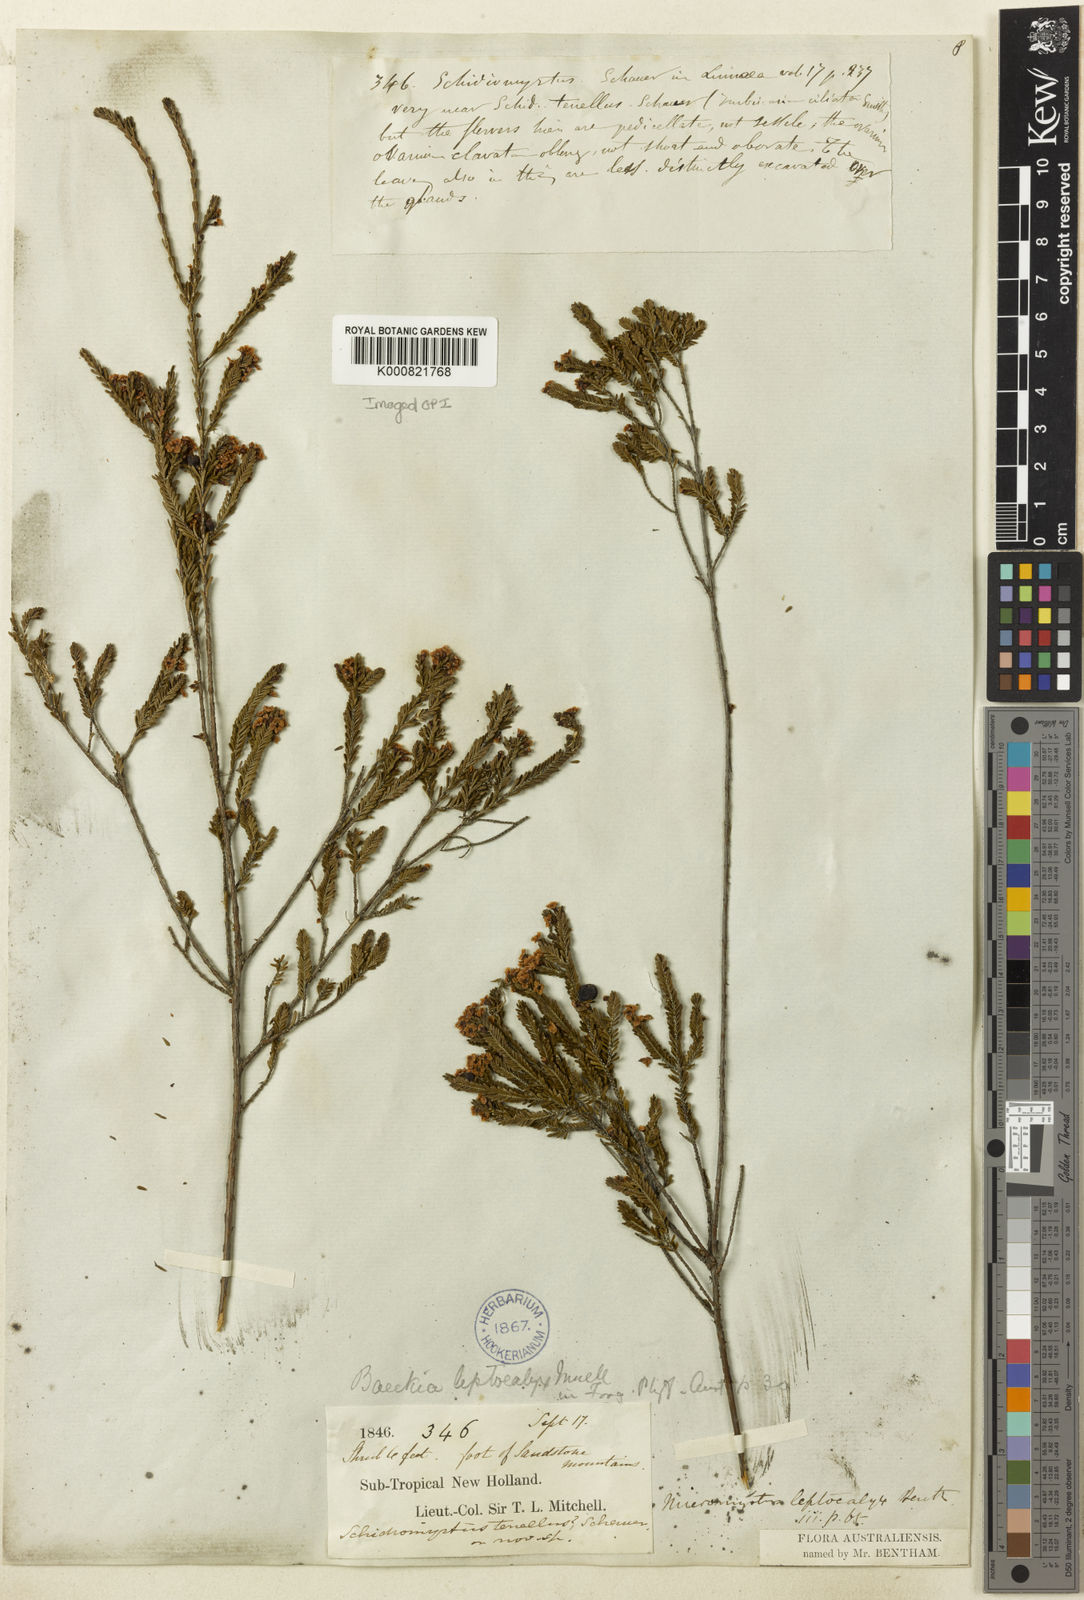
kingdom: Plantae
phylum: Tracheophyta
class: Magnoliopsida
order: Myrtales
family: Myrtaceae
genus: Micromyrtus
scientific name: Micromyrtus leptocalyx
